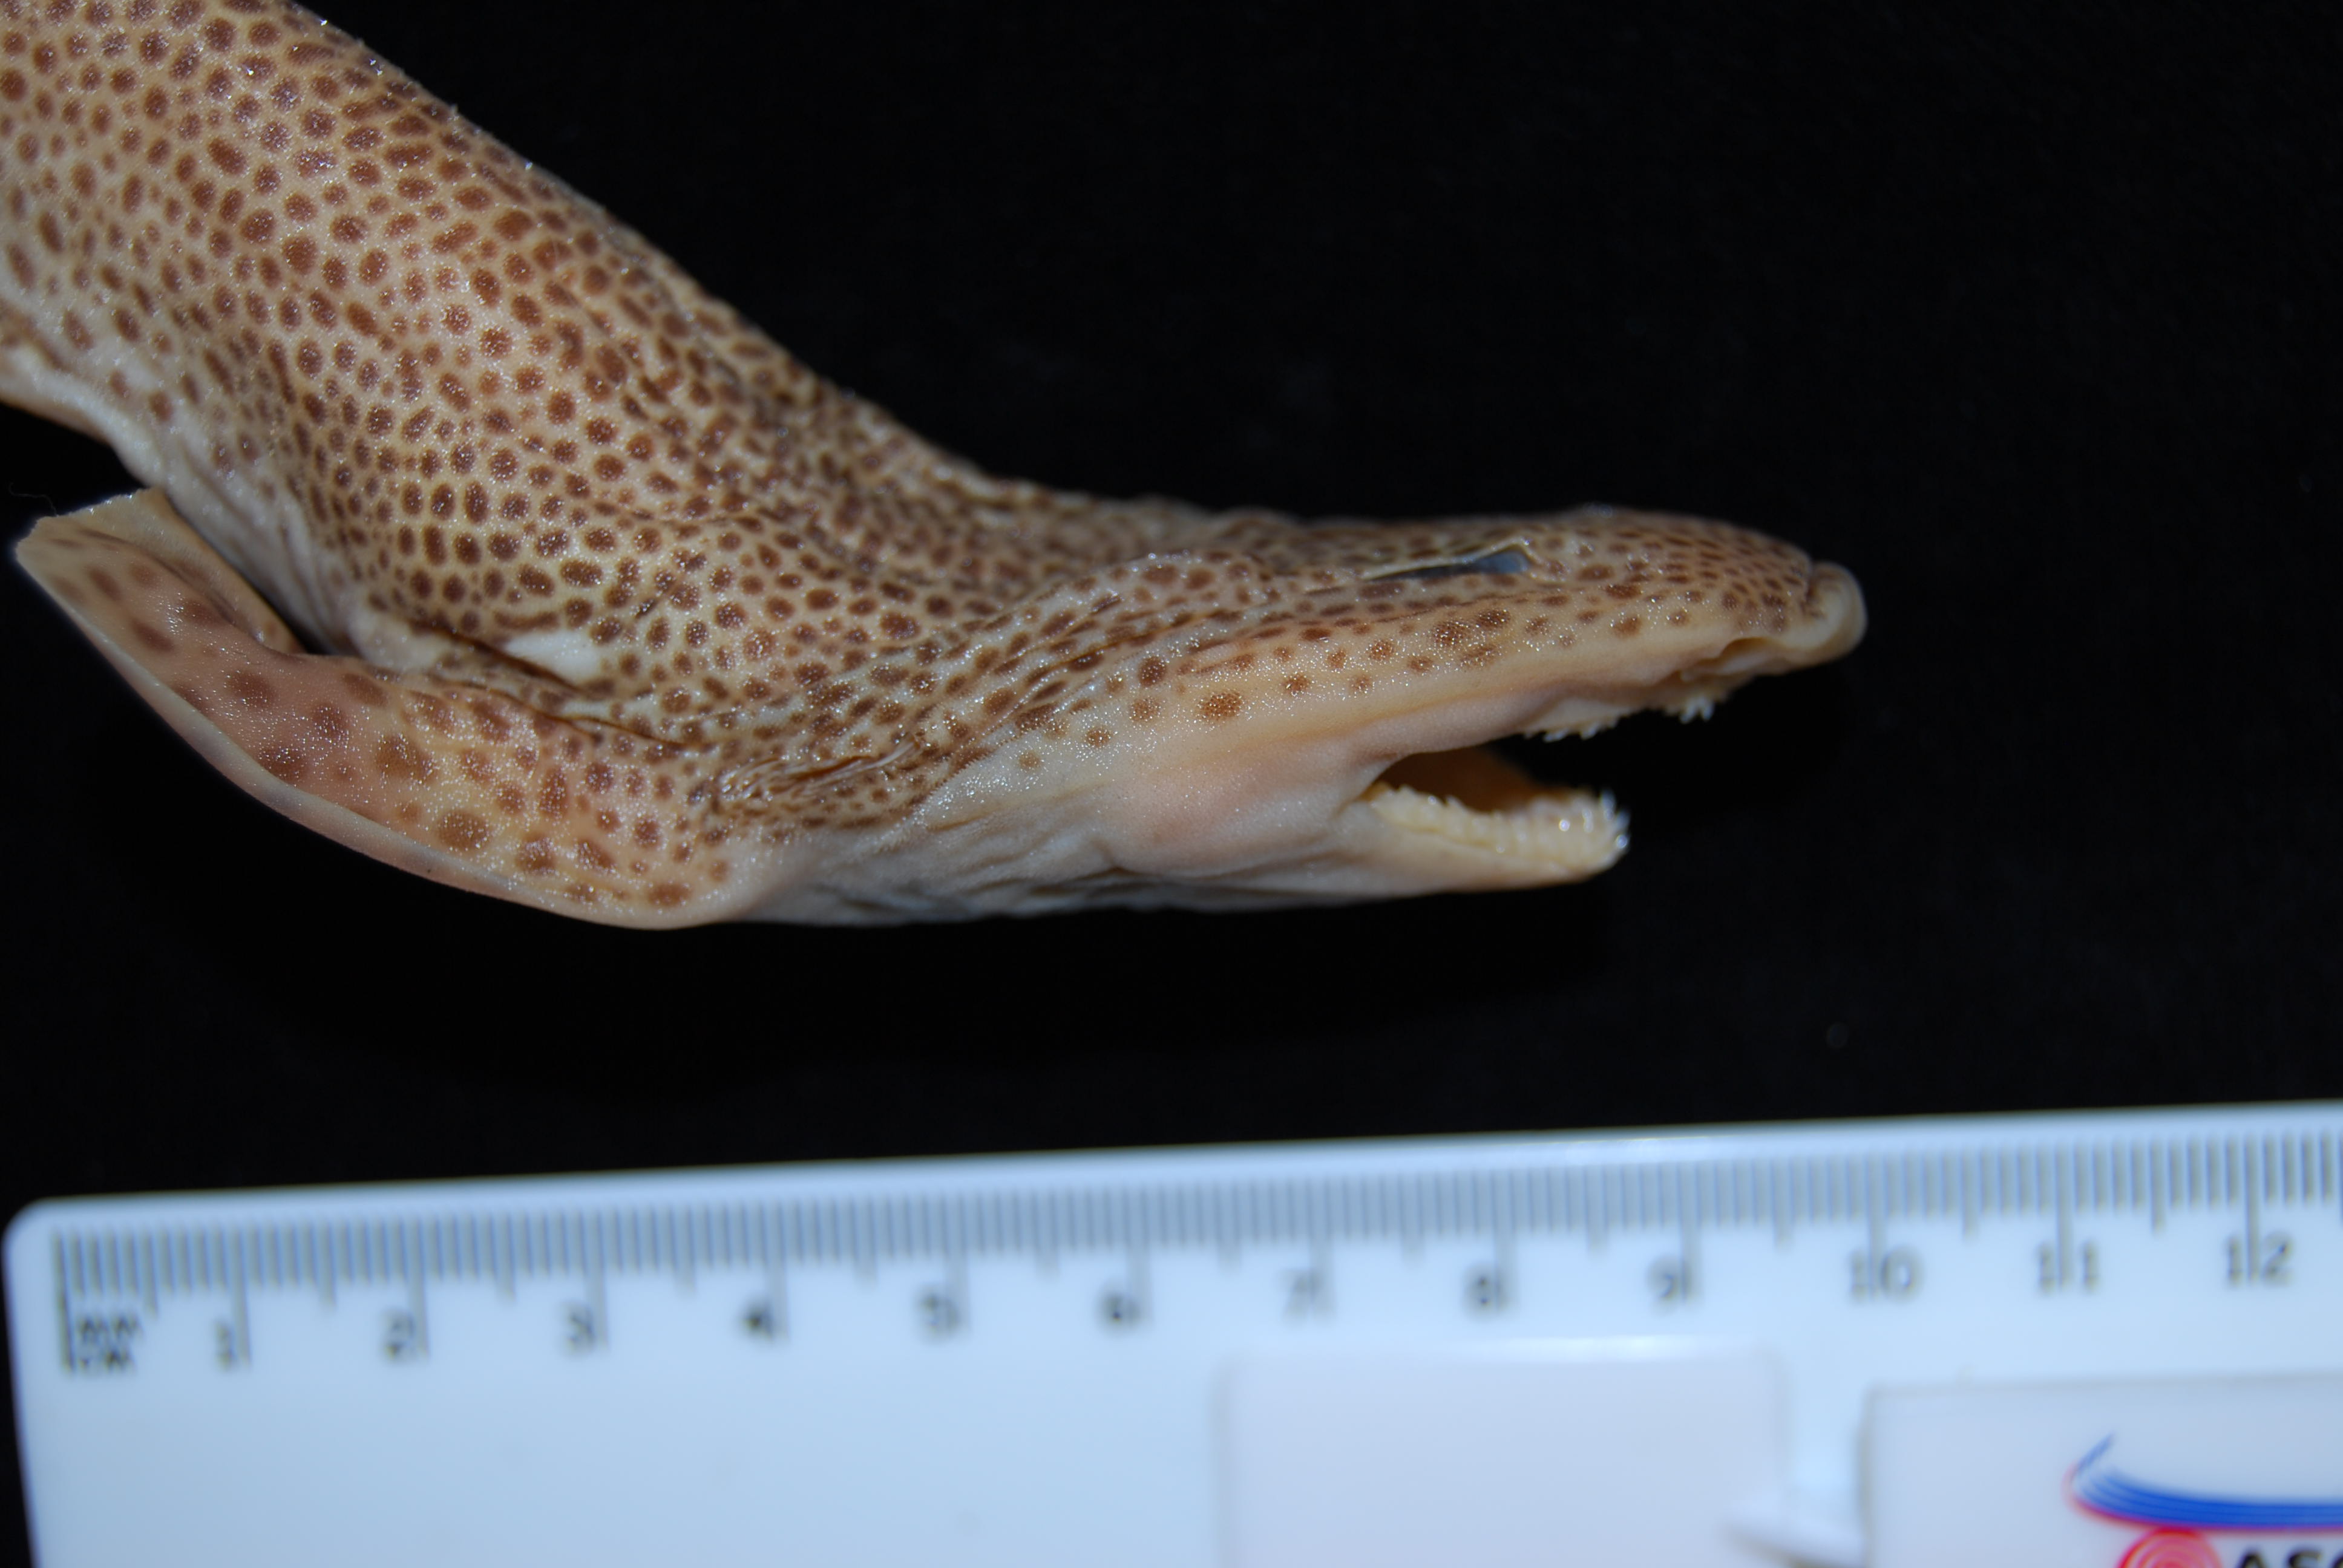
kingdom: Animalia
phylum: Chordata
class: Elasmobranchii
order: Carcharhiniformes
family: Scyliorhinidae
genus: Holohalaelurus
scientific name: Holohalaelurus grennian
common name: Grinning izak catshark
